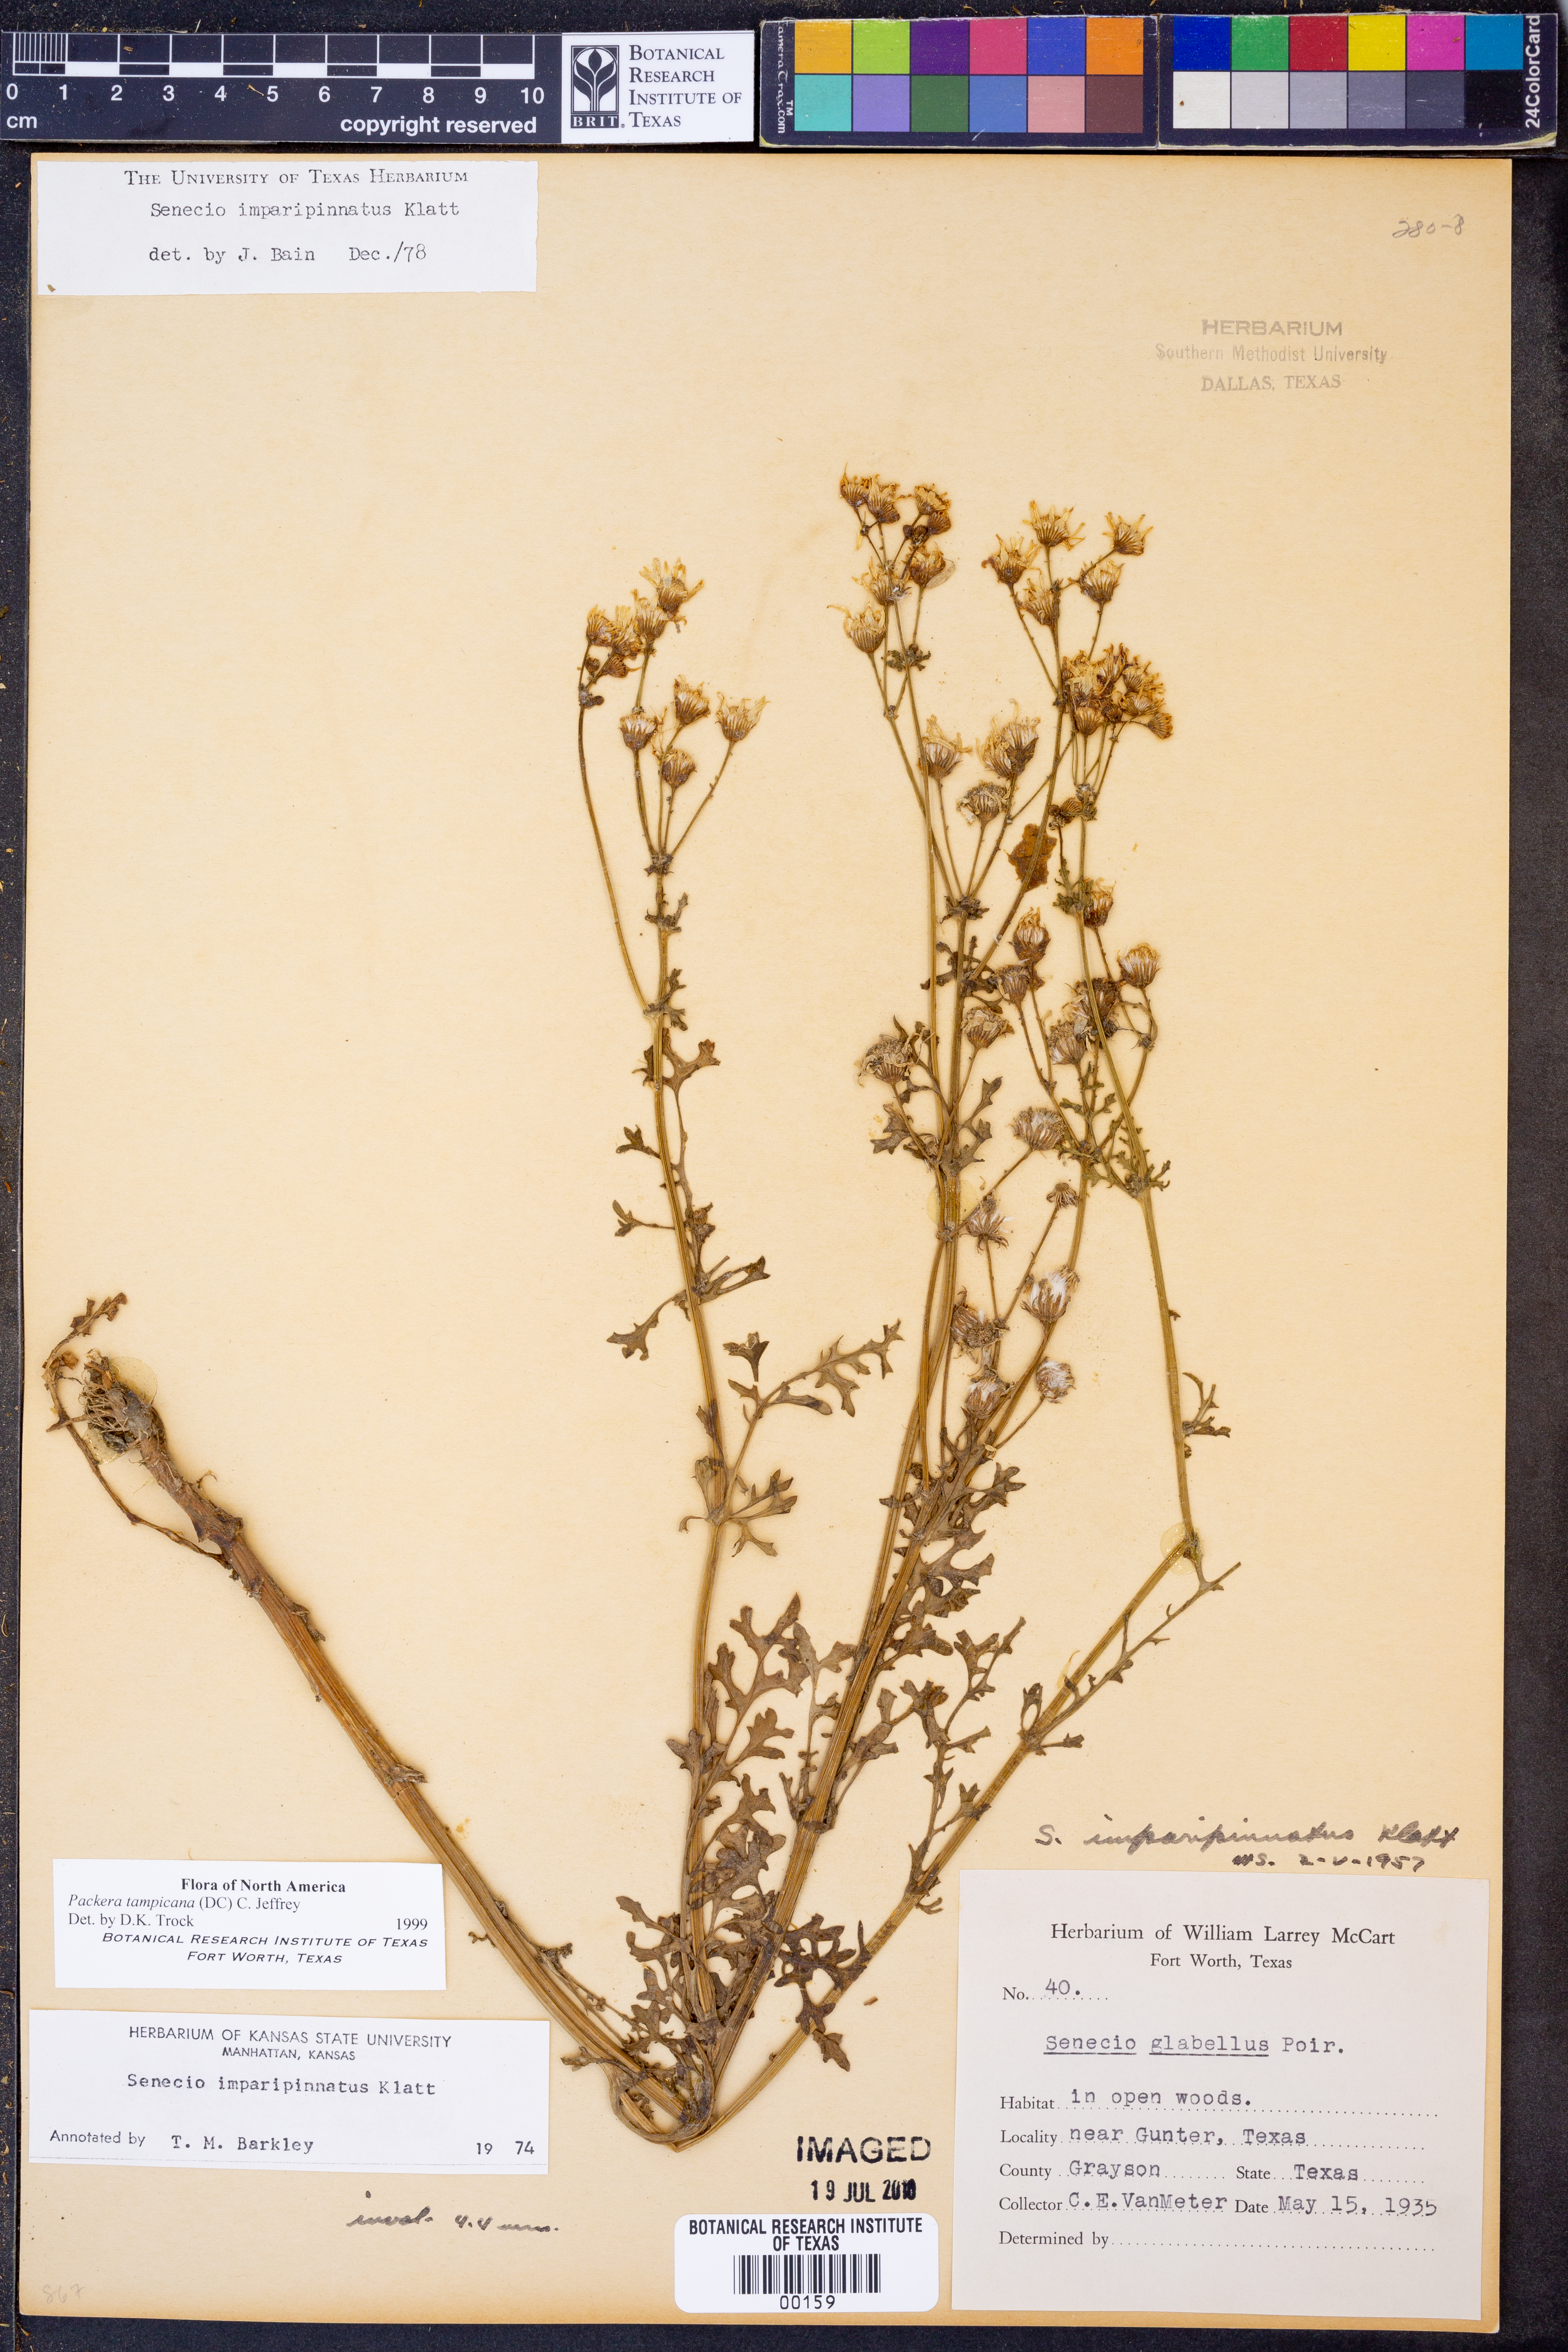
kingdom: Plantae
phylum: Tracheophyta
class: Magnoliopsida
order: Asterales
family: Asteraceae
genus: Packera
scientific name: Packera tampicana
